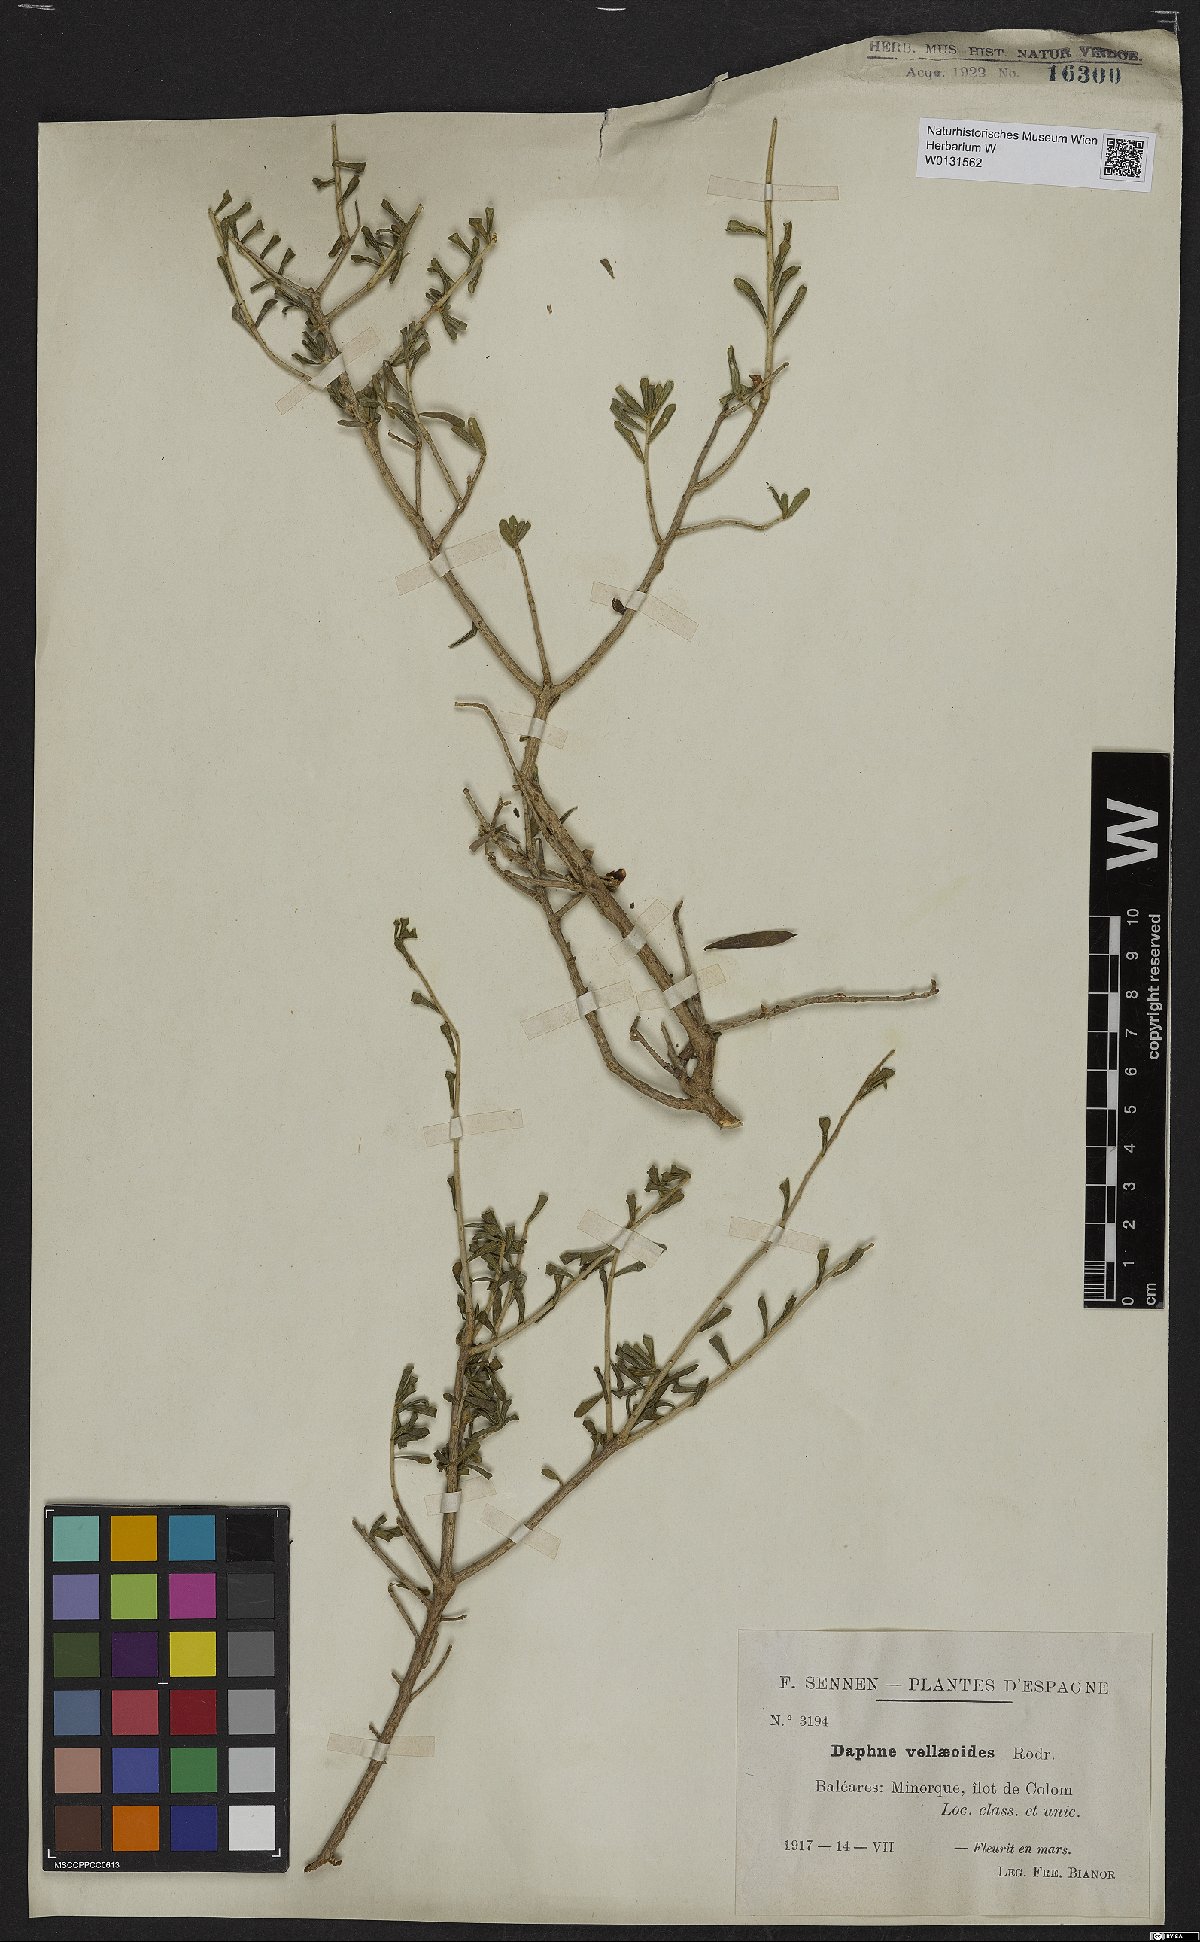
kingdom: Plantae
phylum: Tracheophyta
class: Magnoliopsida
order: Malvales
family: Thymelaeaceae
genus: Daphne
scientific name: Daphne rodriguezii
